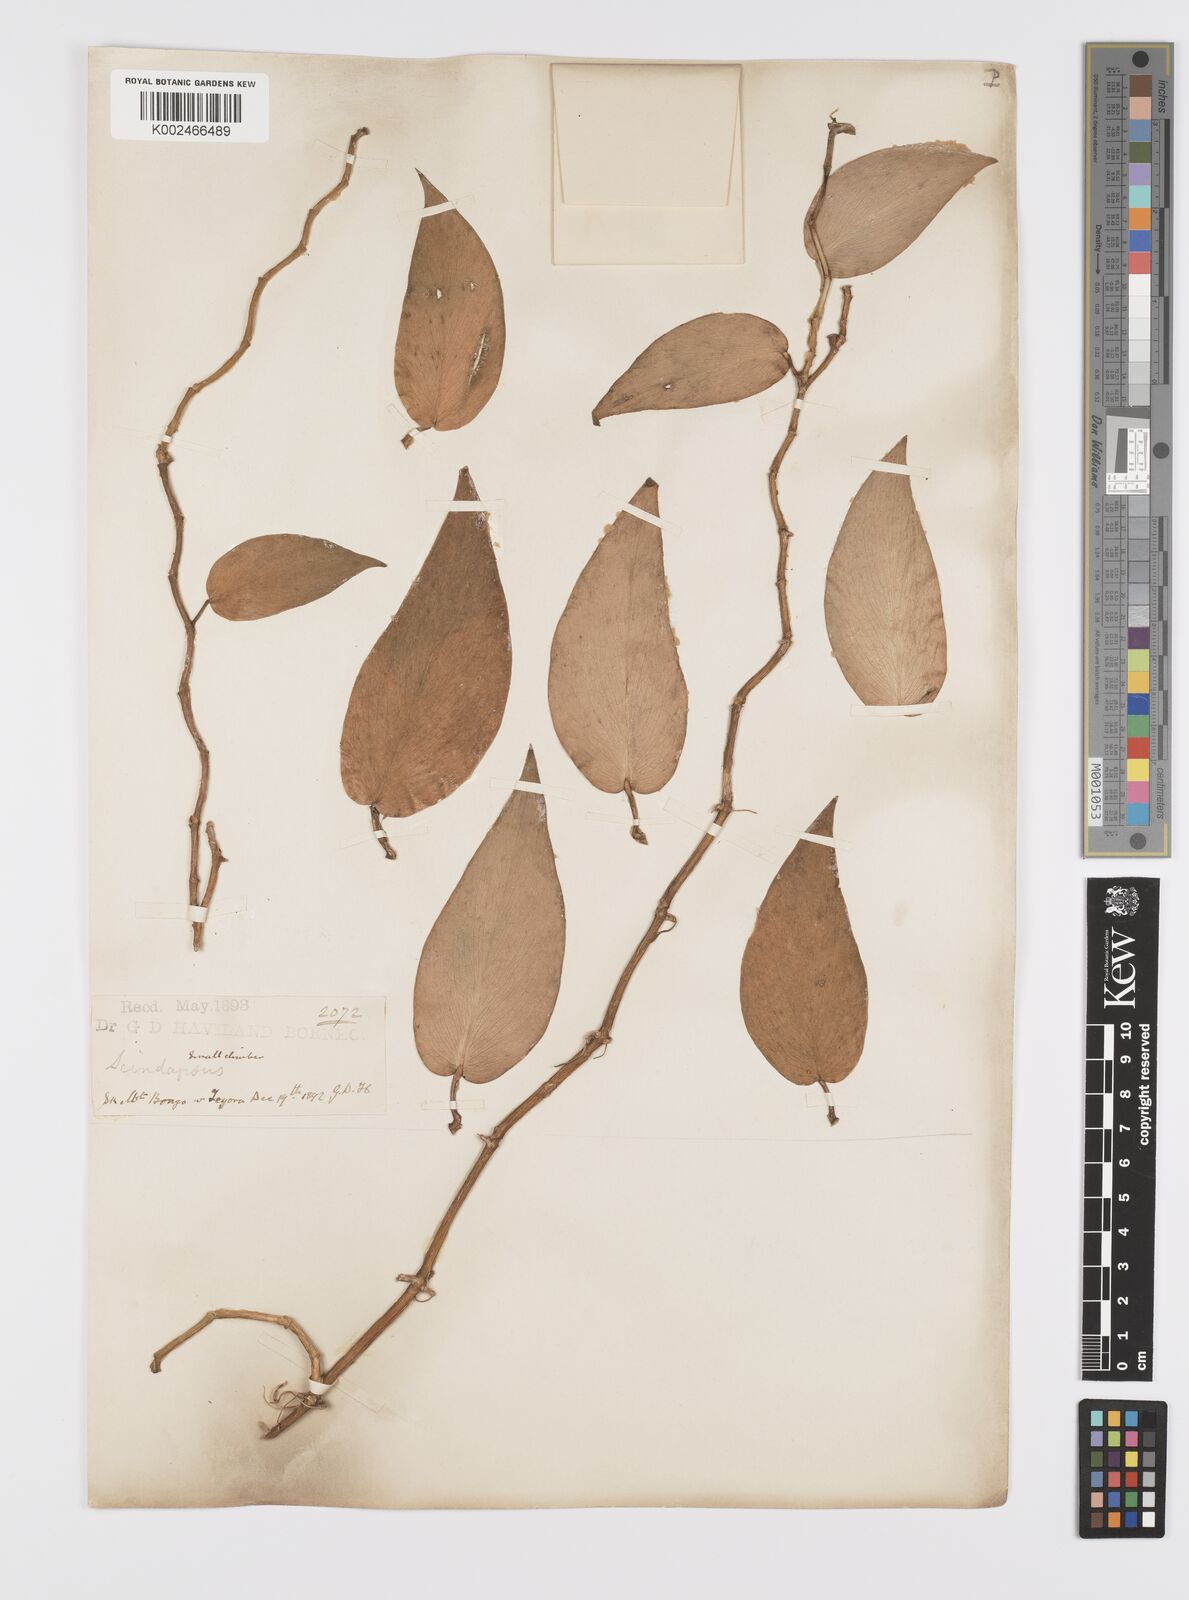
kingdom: Plantae
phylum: Tracheophyta
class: Liliopsida
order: Alismatales
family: Araceae
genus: Scindapsus
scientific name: Scindapsus pictus
